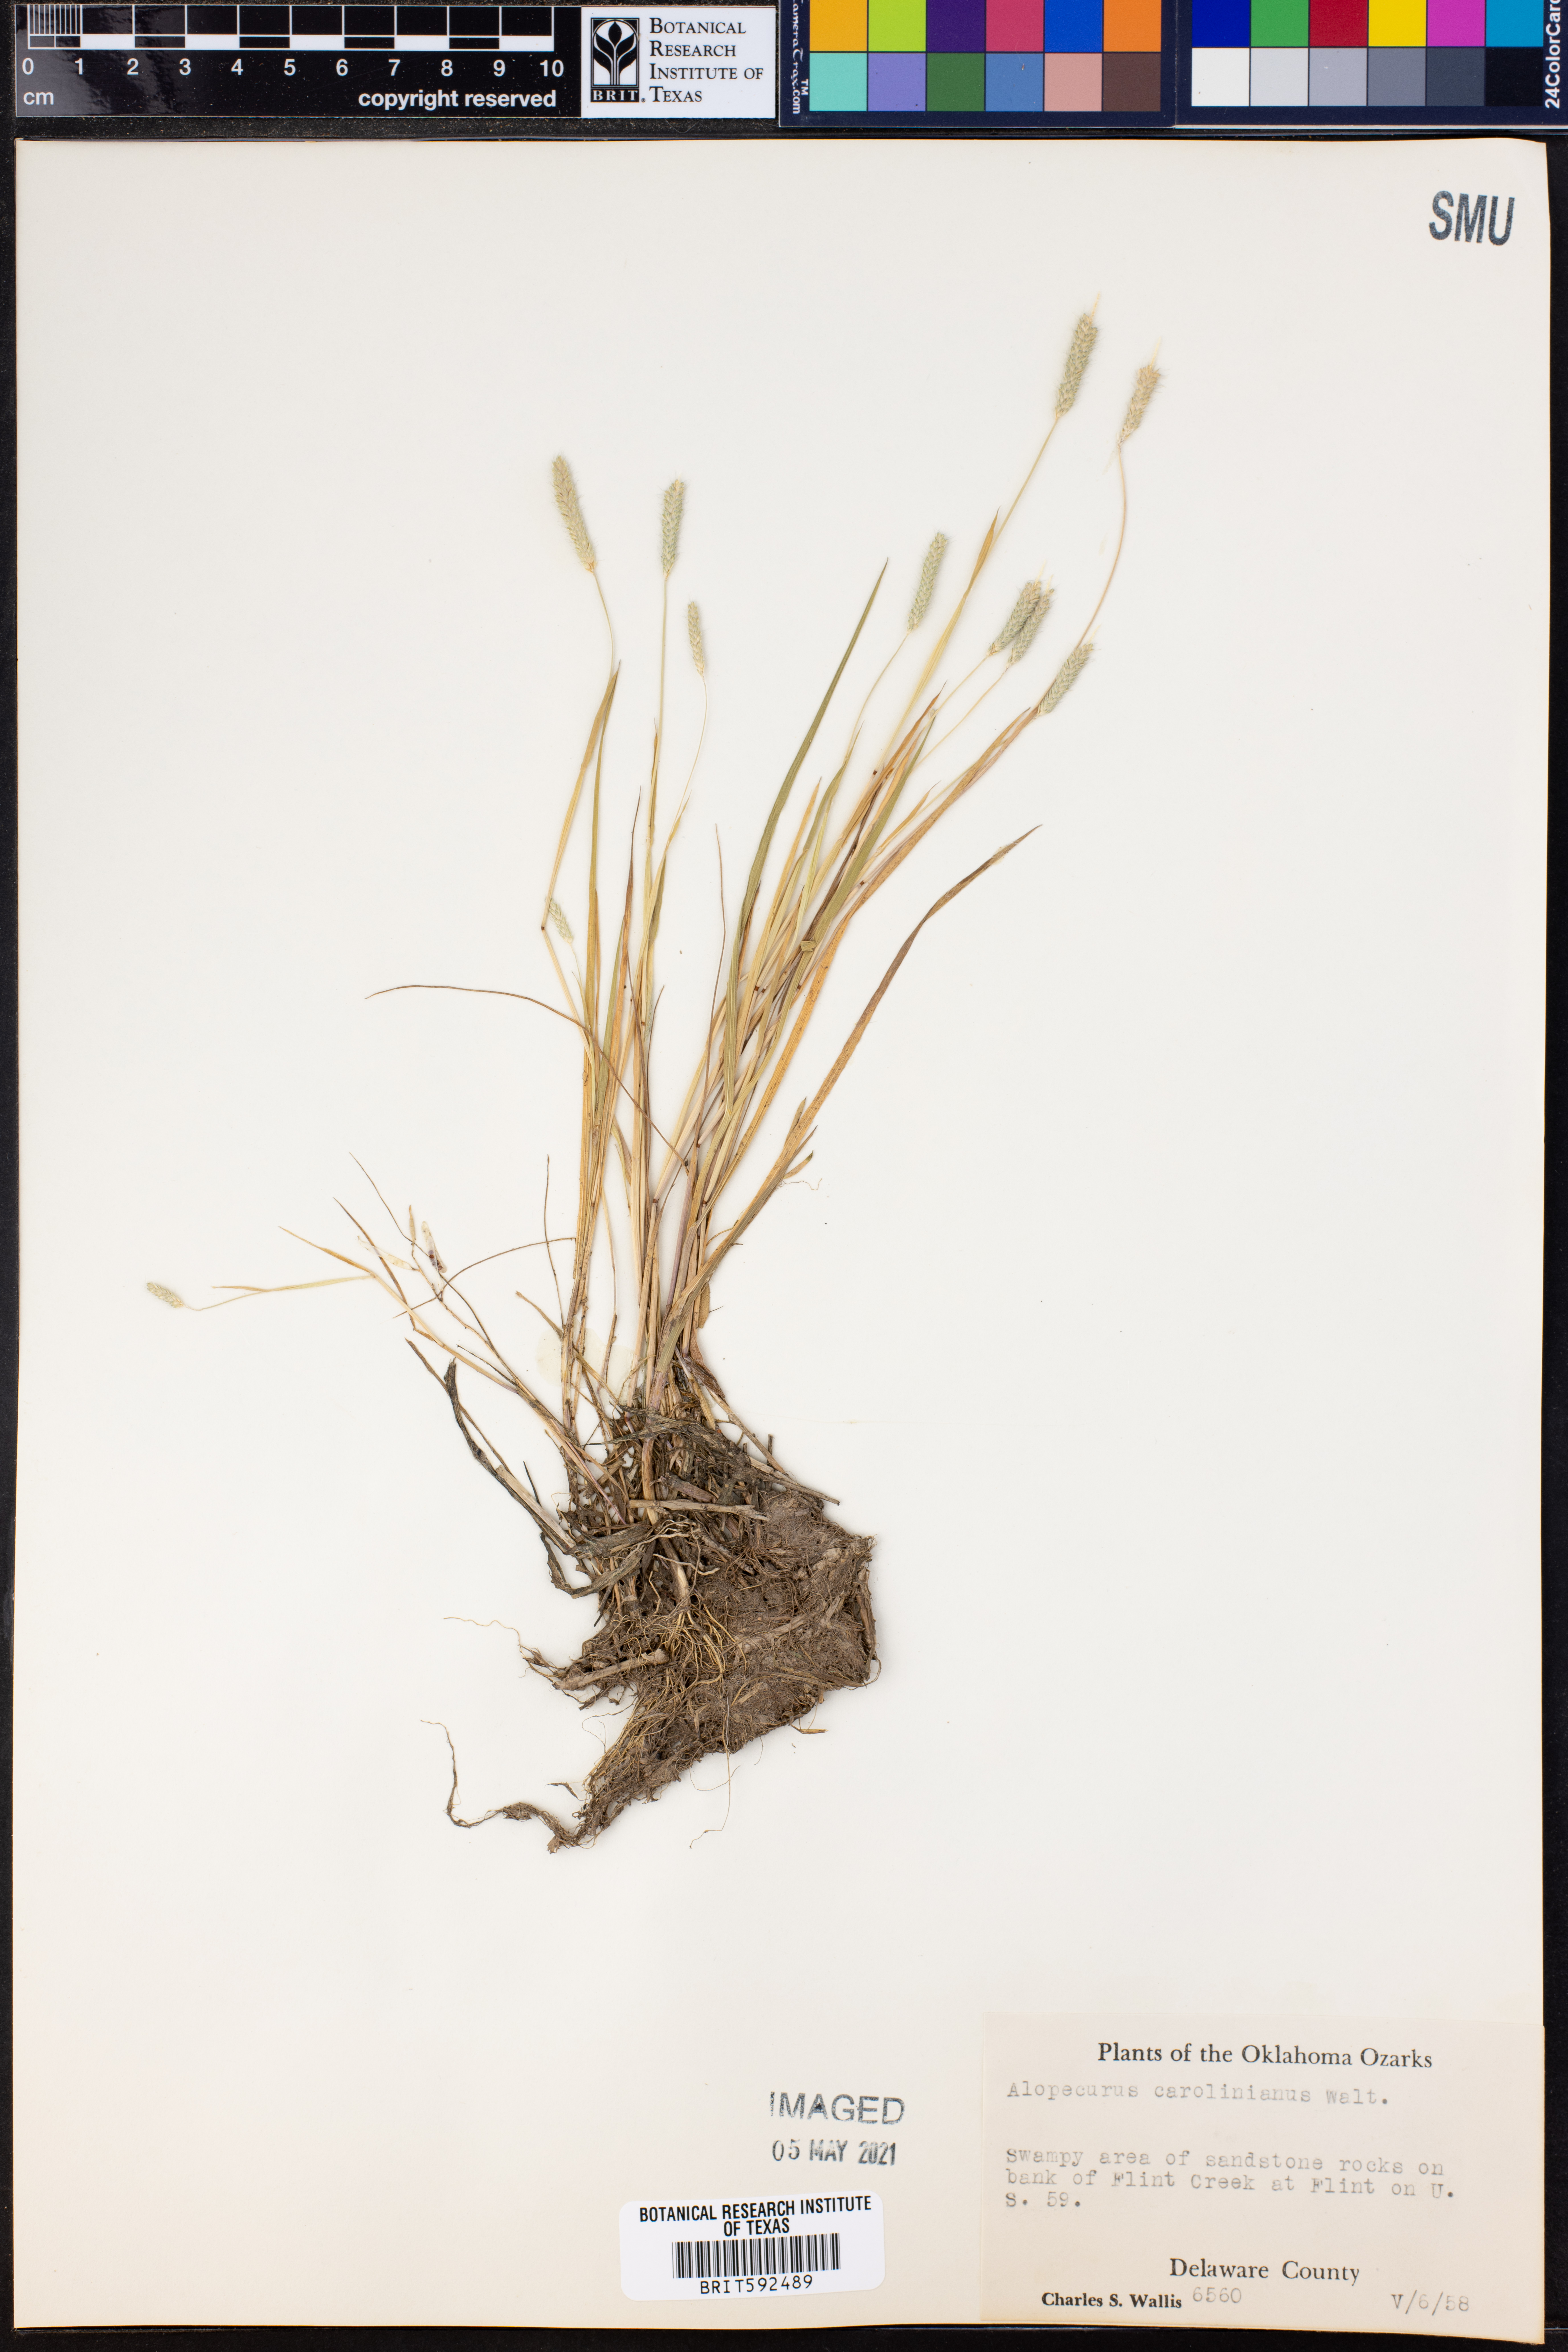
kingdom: Plantae
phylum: Tracheophyta
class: Liliopsida
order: Poales
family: Poaceae
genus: Alopecurus
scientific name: Alopecurus carolinianus
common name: Tufted foxtail
